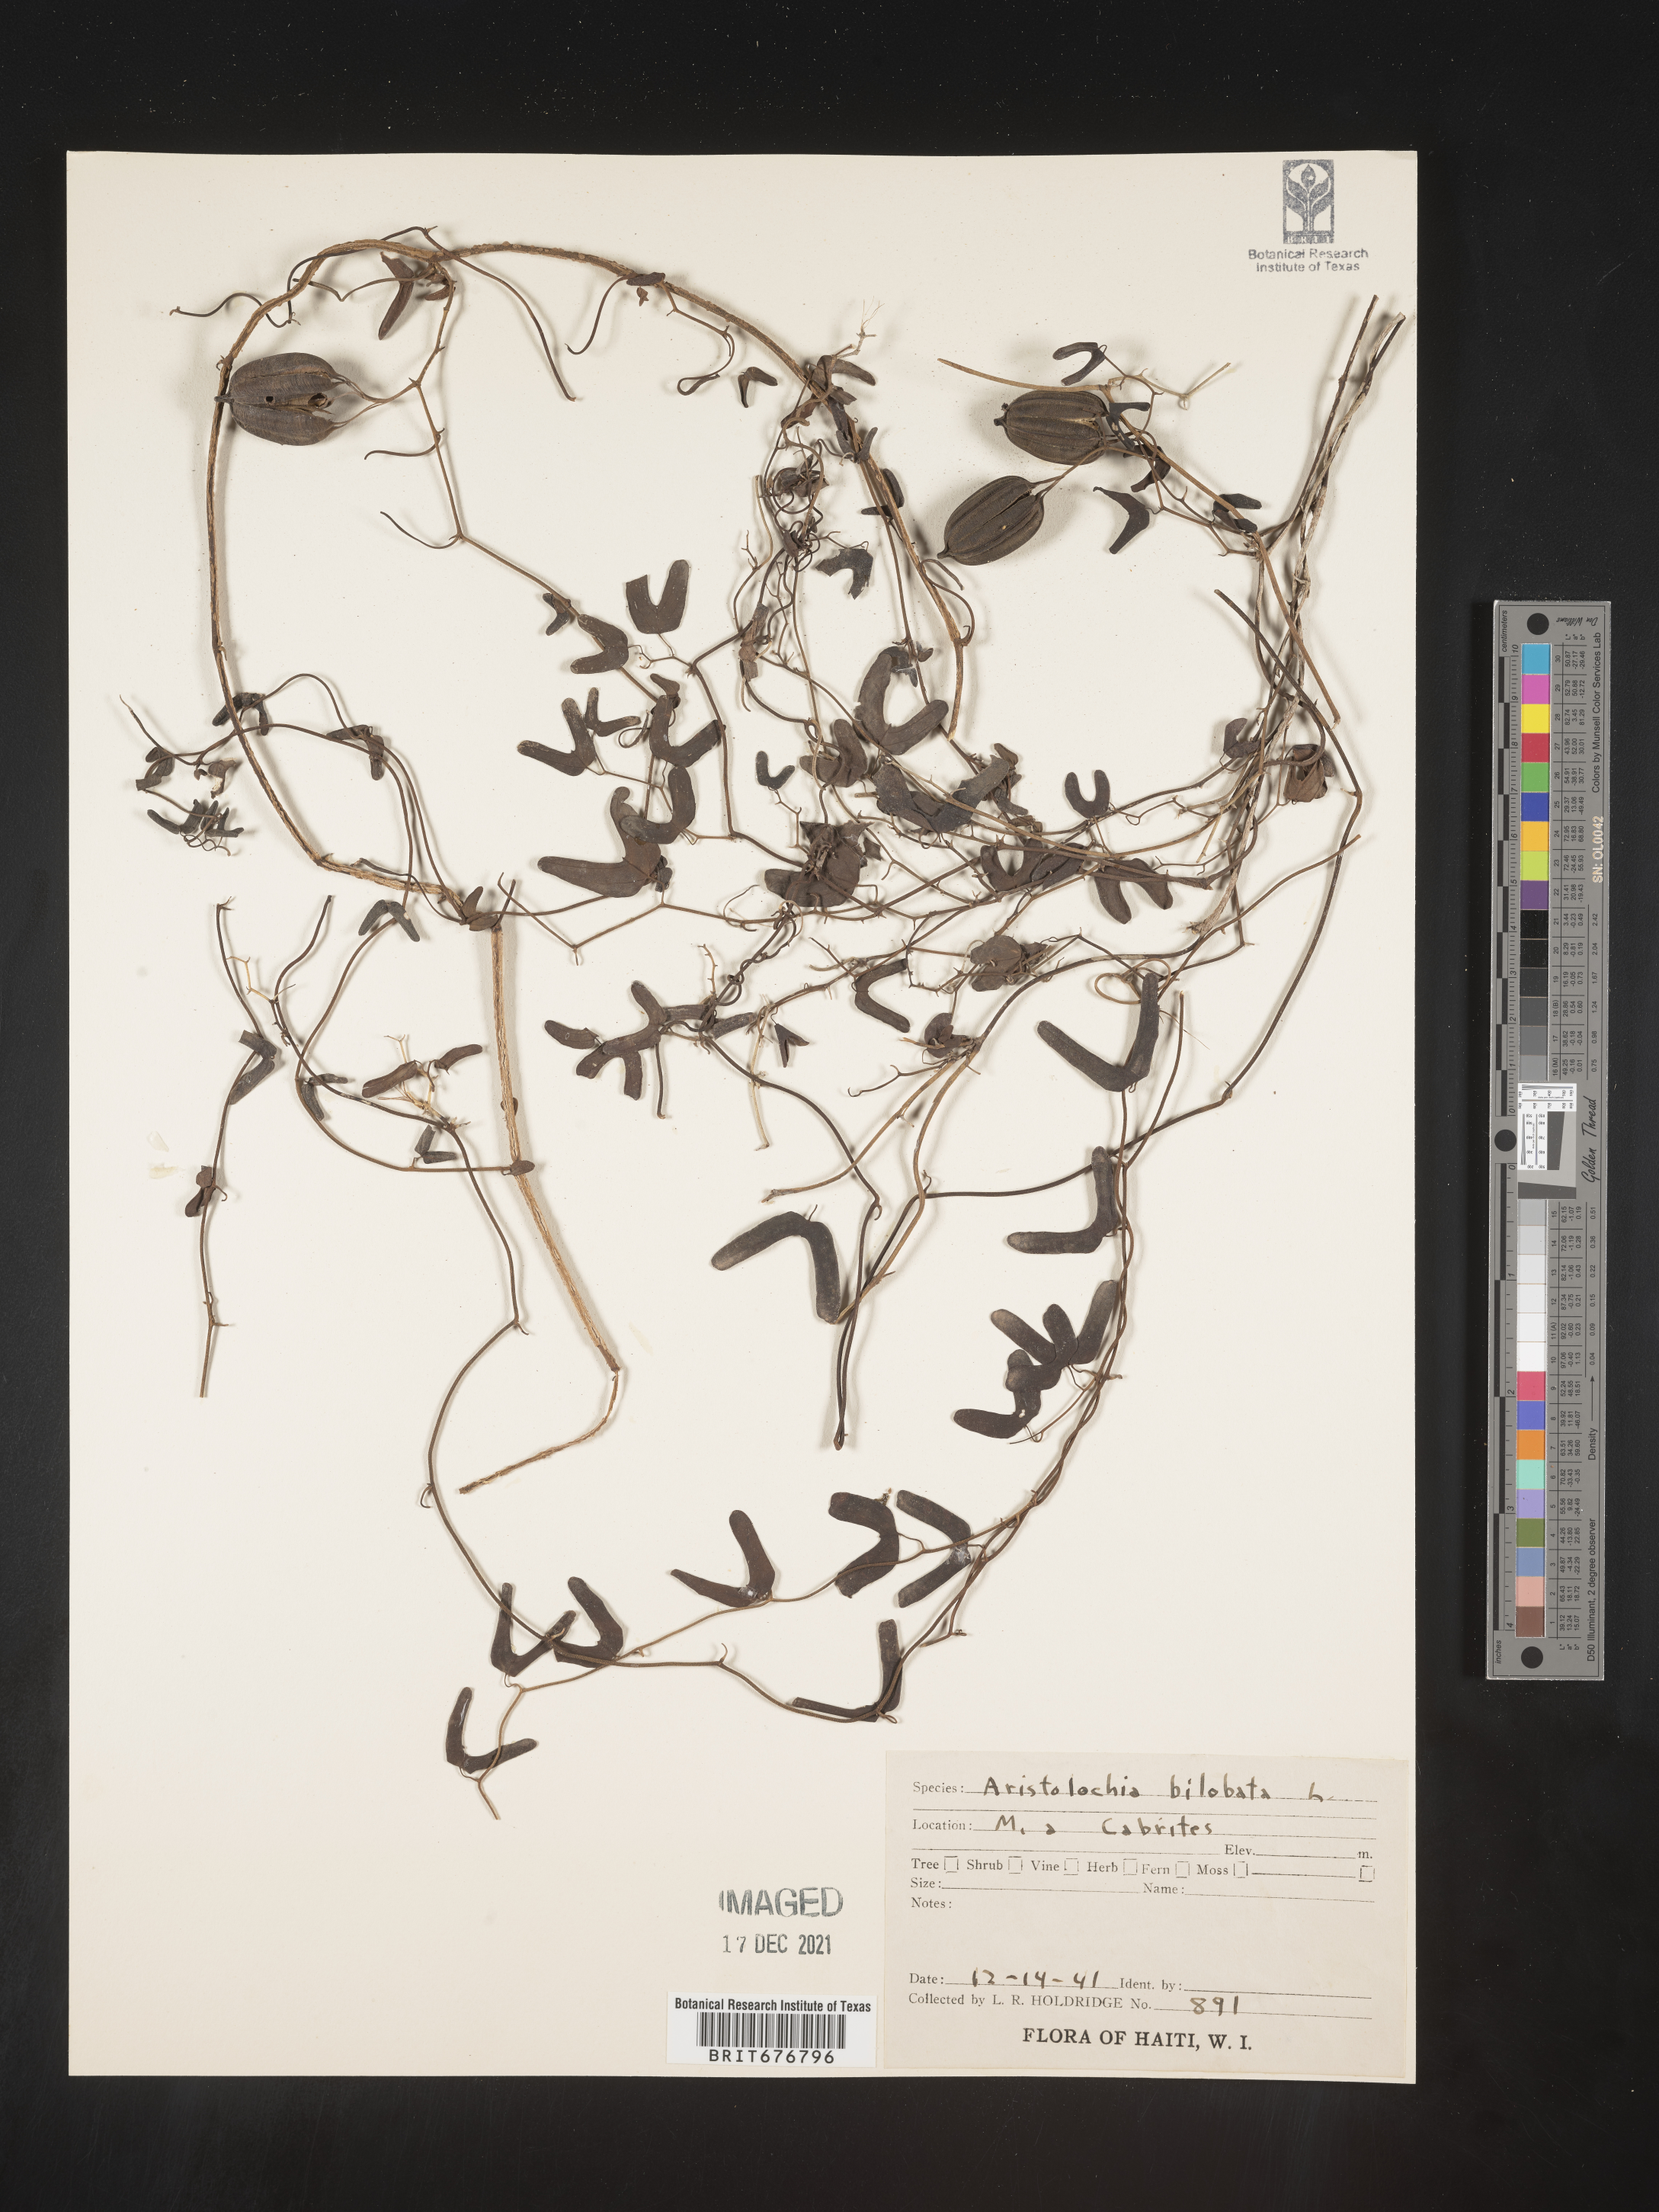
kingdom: Plantae
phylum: Tracheophyta
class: Magnoliopsida
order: Piperales
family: Aristolochiaceae
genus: Aristolochia
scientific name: Aristolochia
